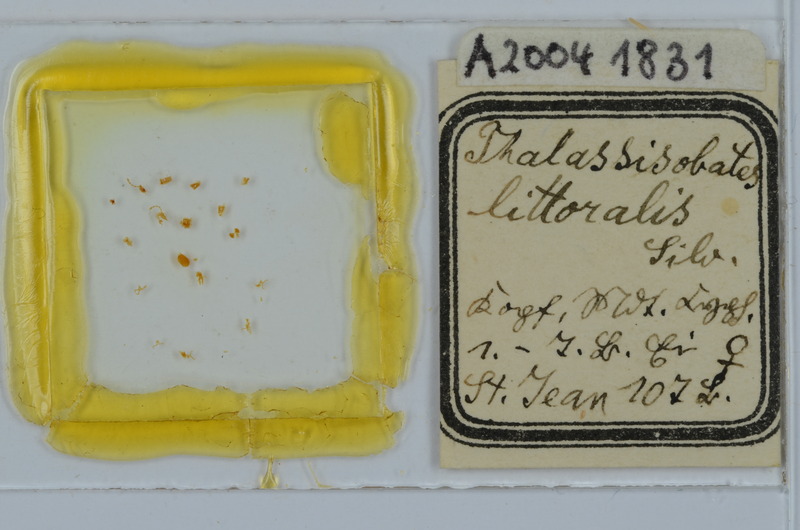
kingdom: Animalia
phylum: Arthropoda
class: Diplopoda
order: Julida
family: Nemasomatidae
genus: Thalassisobates
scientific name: Thalassisobates littoralis
